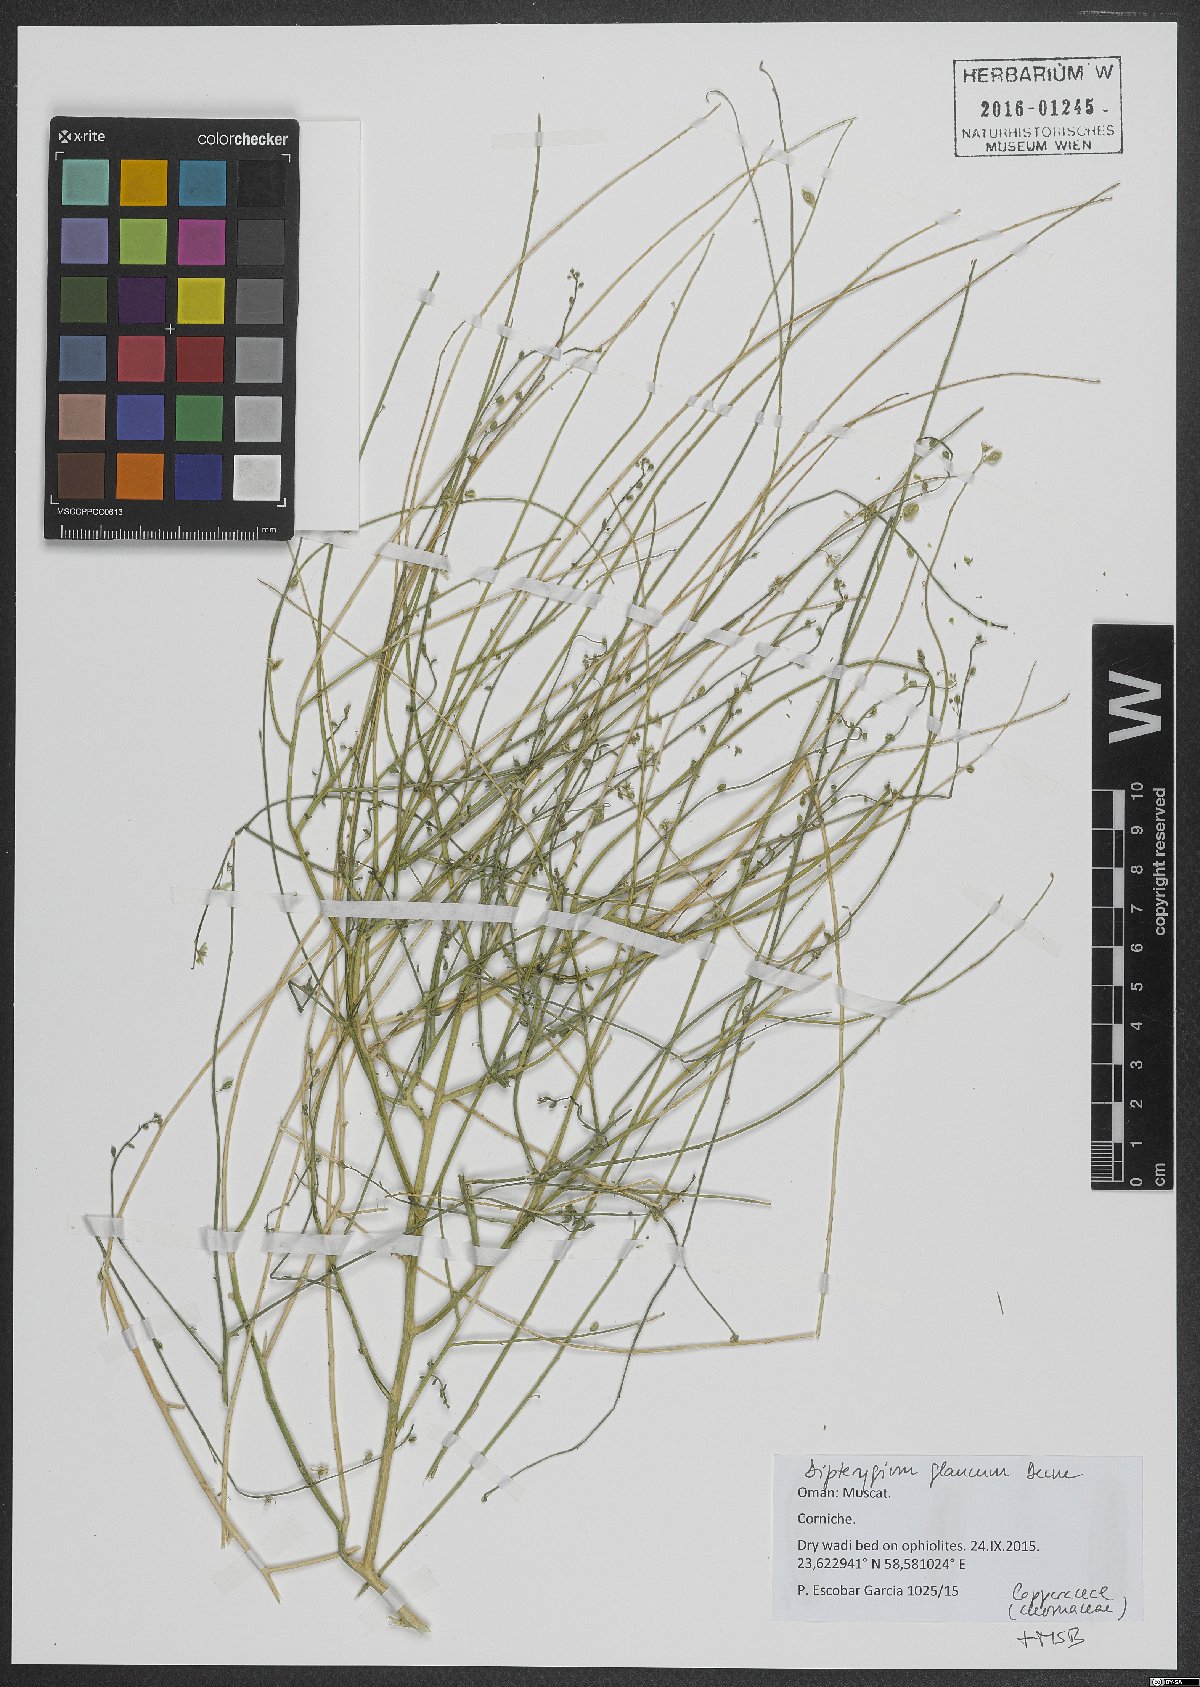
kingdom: Plantae
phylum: Tracheophyta
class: Magnoliopsida
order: Brassicales
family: Cleomaceae
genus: Dipterygium
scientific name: Dipterygium glaucum
